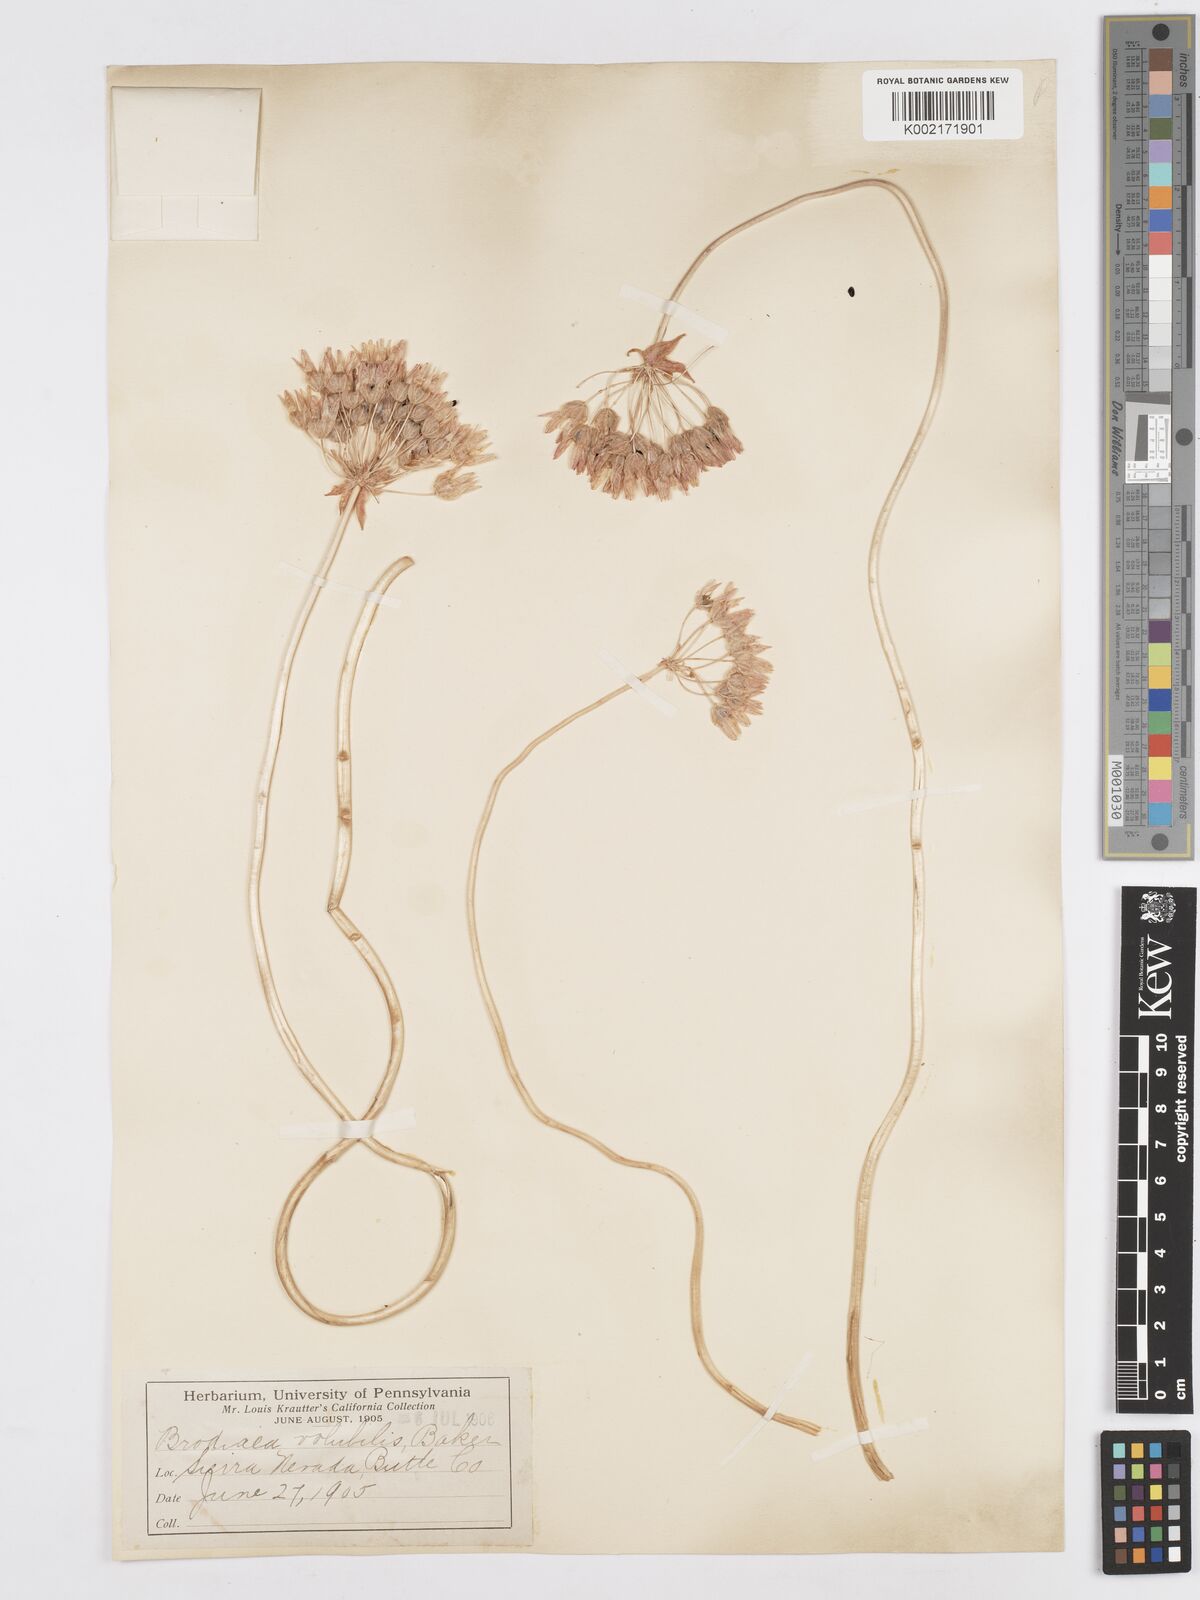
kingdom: Plantae
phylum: Tracheophyta
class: Liliopsida
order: Asparagales
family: Asparagaceae
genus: Dichelostemma
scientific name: Dichelostemma volubile
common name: Trining brodiaea
